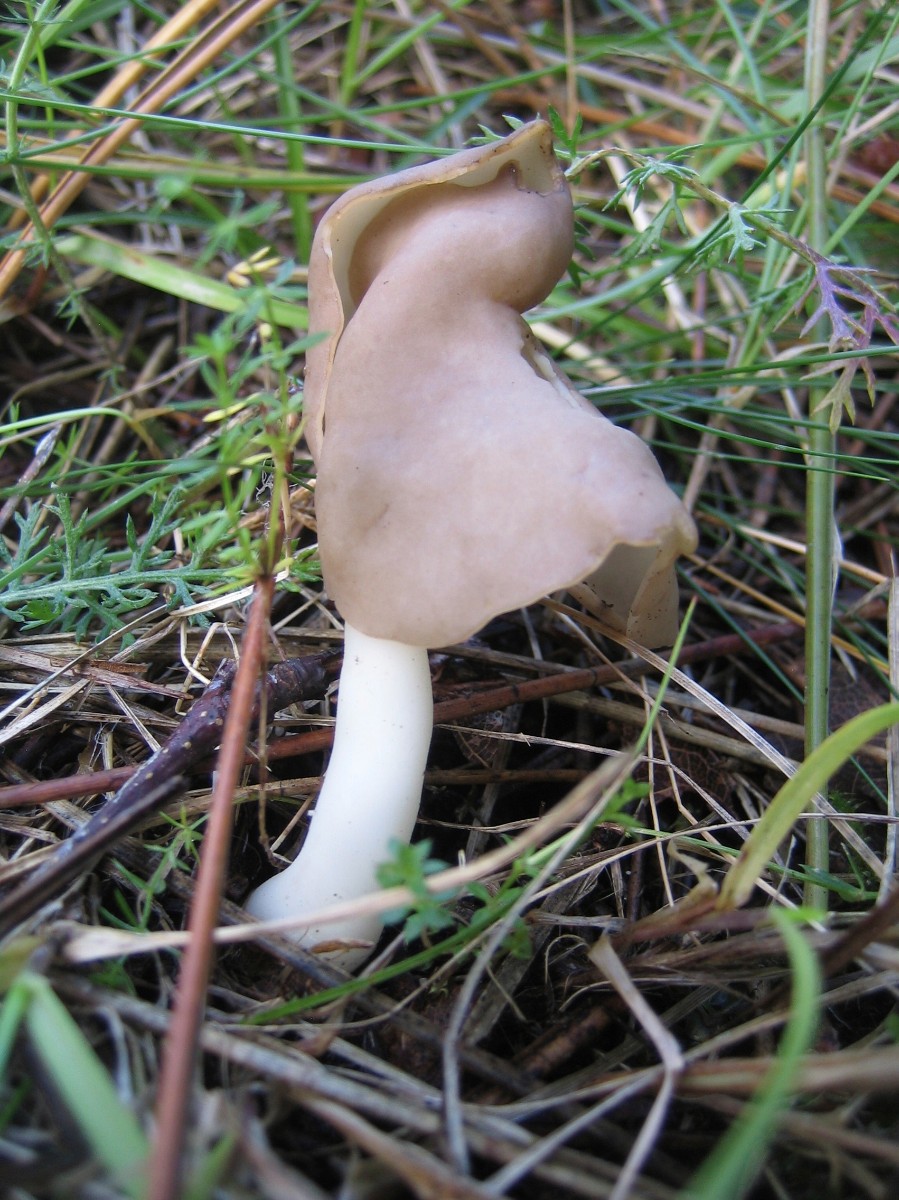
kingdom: Fungi
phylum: Ascomycota
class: Pezizomycetes
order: Pezizales
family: Helvellaceae
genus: Helvella
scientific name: Helvella elastica
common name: elastik-foldhat
